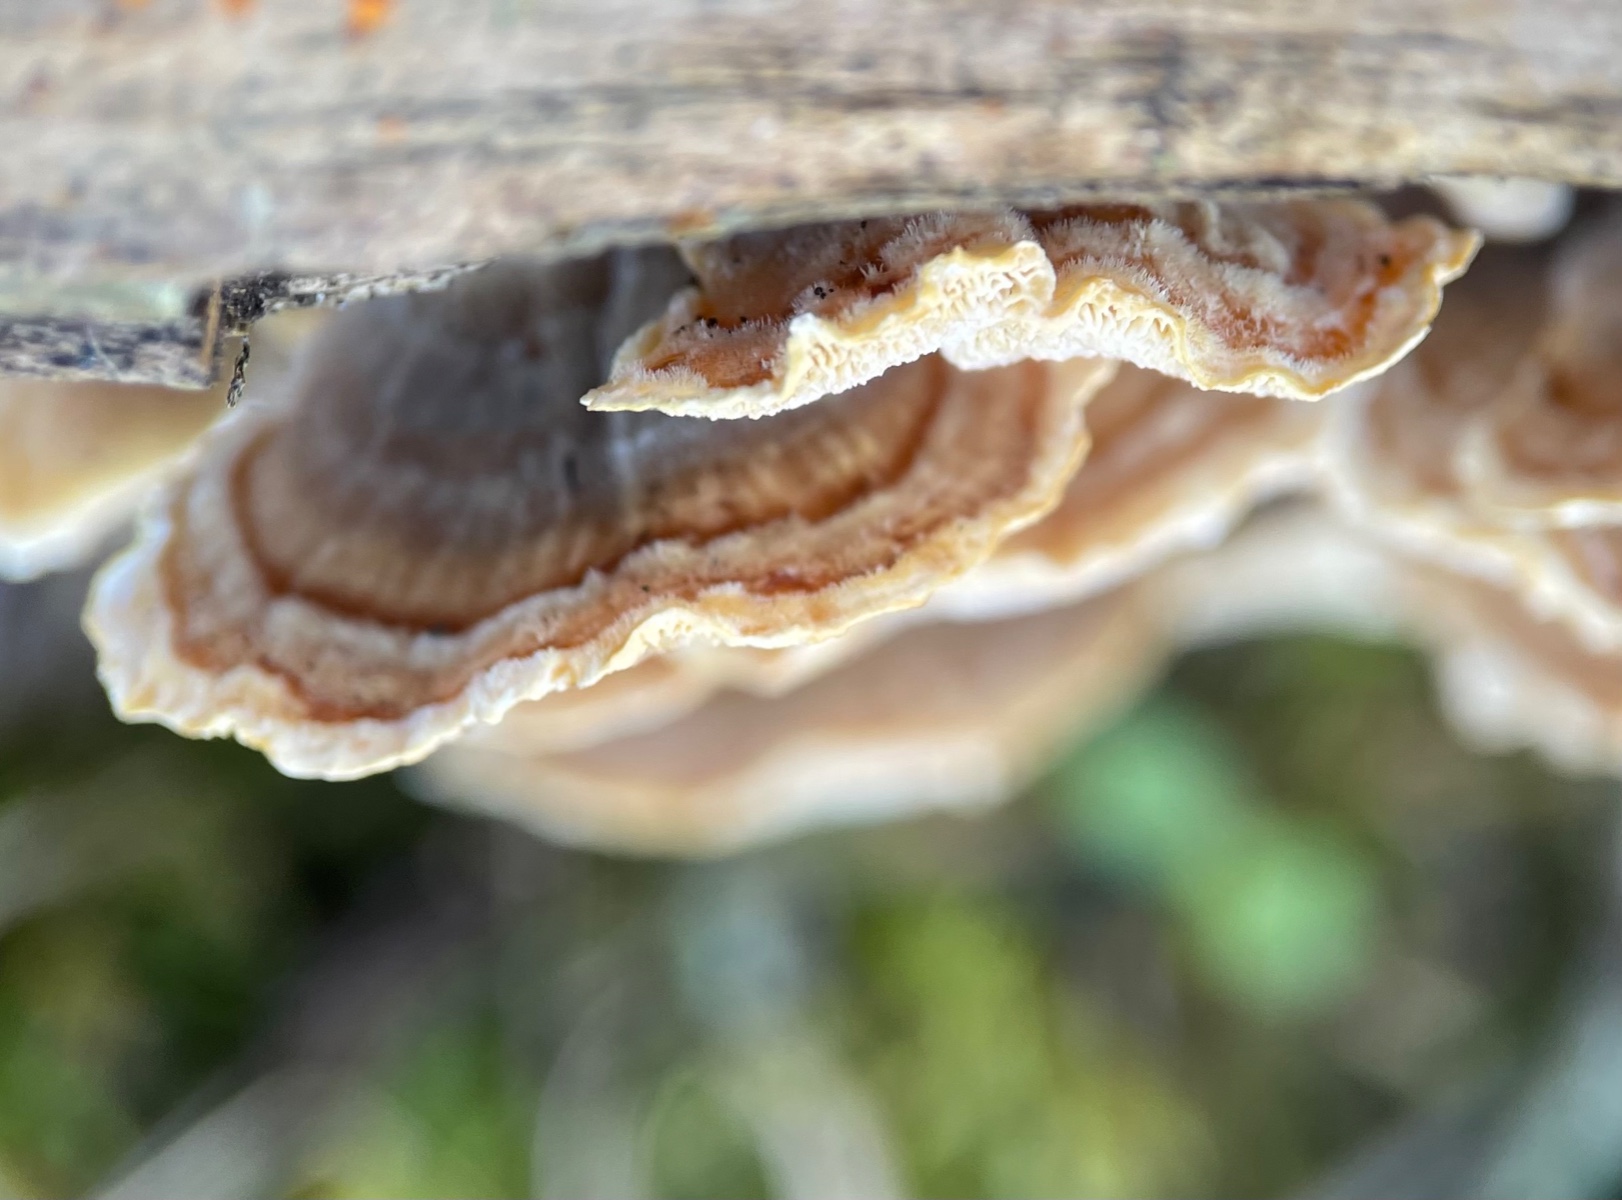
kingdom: Fungi
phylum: Basidiomycota
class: Agaricomycetes
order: Polyporales
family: Polyporaceae
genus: Trametes
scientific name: Trametes versicolor
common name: broget læderporesvamp
